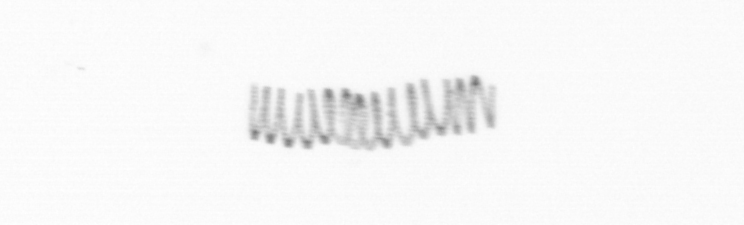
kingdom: Chromista
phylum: Ochrophyta
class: Bacillariophyceae
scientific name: Bacillariophyceae
